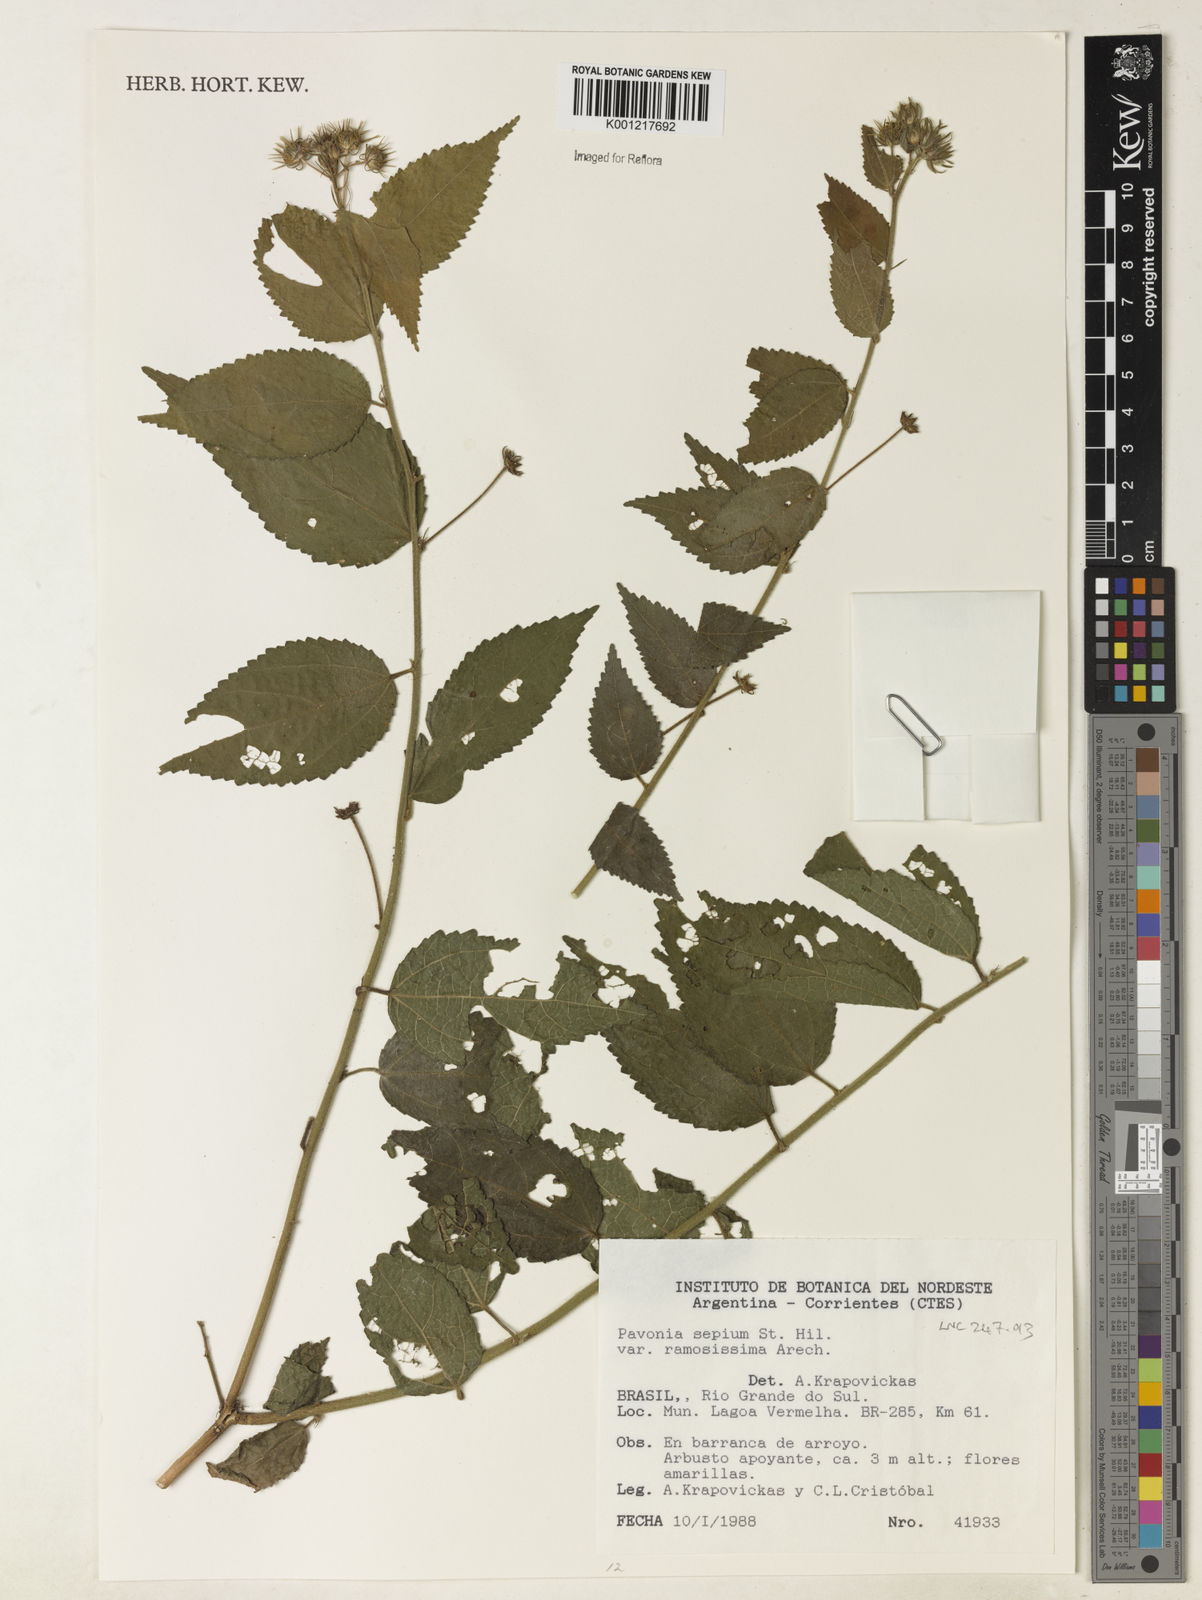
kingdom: Plantae
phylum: Tracheophyta
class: Magnoliopsida
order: Malvales
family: Malvaceae
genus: Pavonia
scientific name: Pavonia ramosissima
